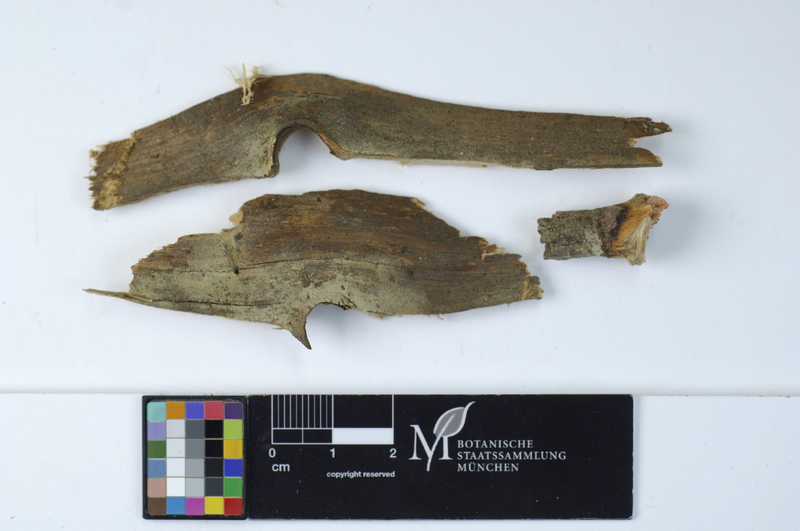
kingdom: Fungi
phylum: Basidiomycota
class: Agaricomycetes
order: Cantharellales
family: Botryobasidiaceae
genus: Botryobasidium
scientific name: Botryobasidium vagum
